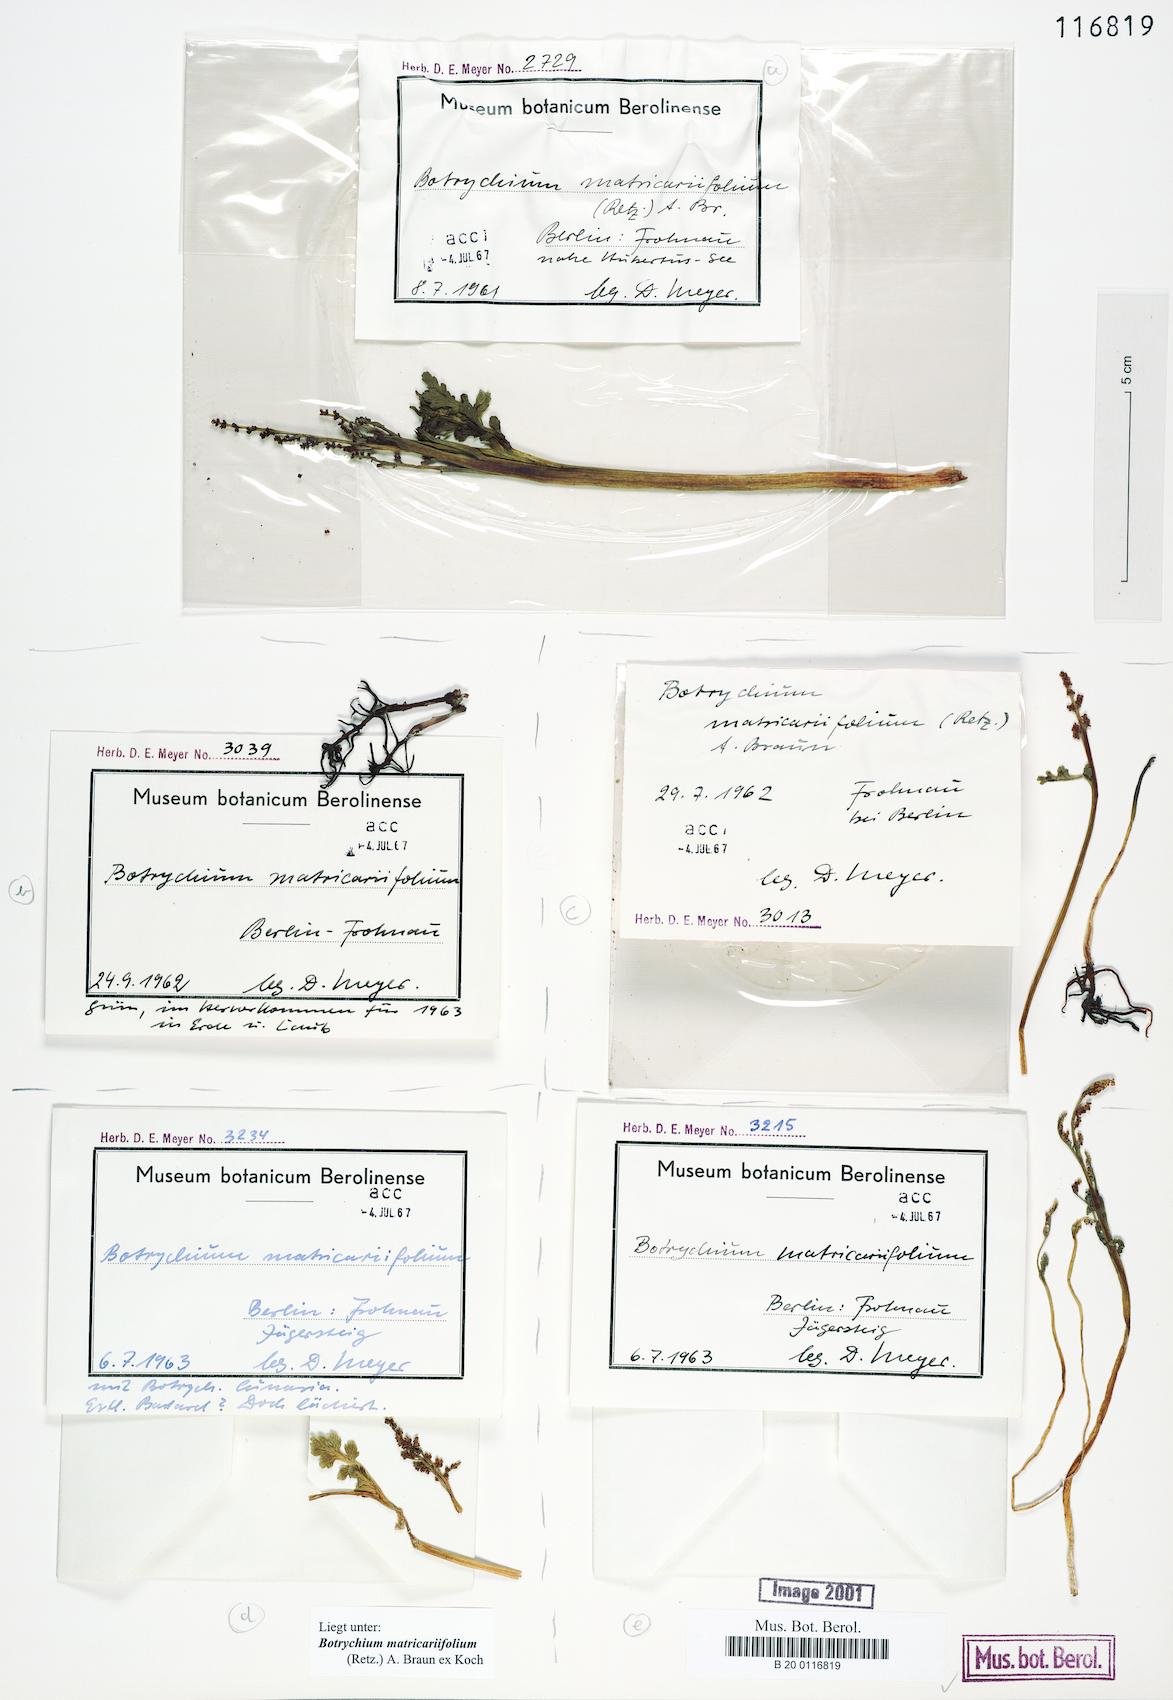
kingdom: Plantae
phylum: Tracheophyta
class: Polypodiopsida
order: Ophioglossales
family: Ophioglossaceae
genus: Botrychium
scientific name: Botrychium matricariifolium
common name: Branched moonwort
